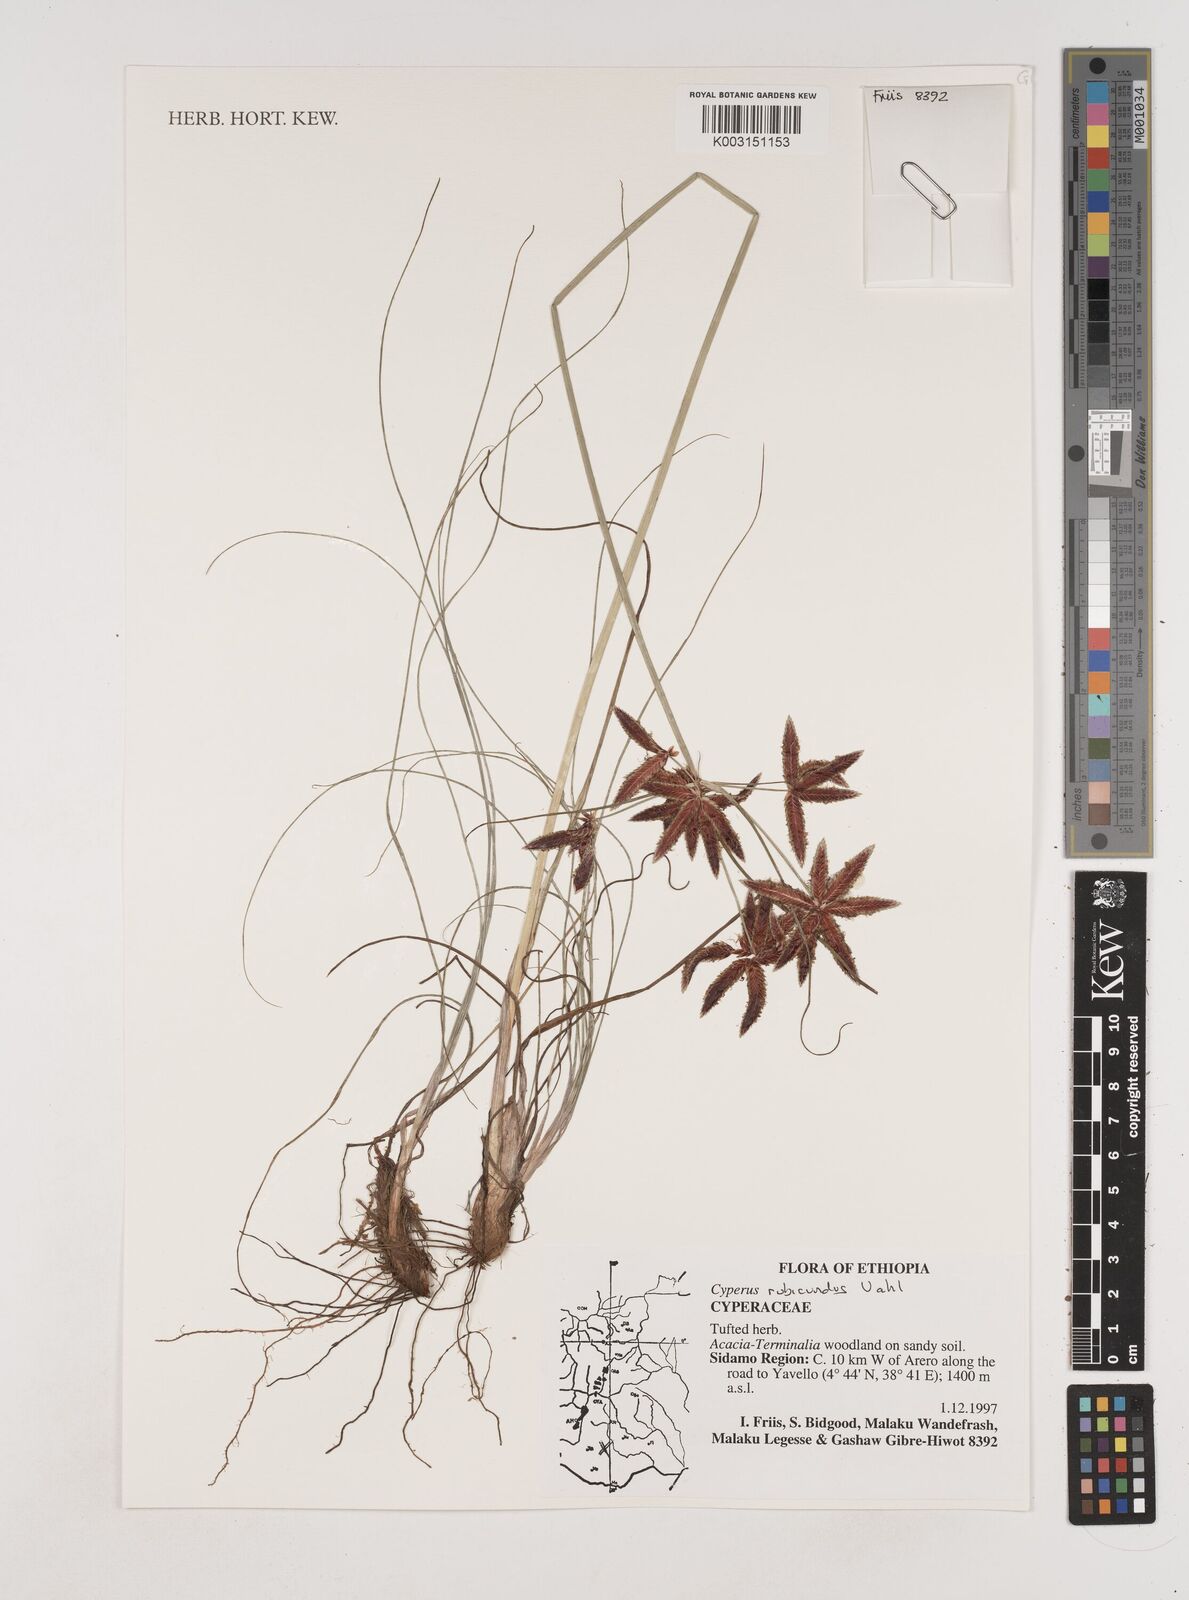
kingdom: Plantae
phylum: Tracheophyta
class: Liliopsida
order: Poales
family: Cyperaceae
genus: Cyperus
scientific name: Cyperus rubicundus
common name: Coco-grass
